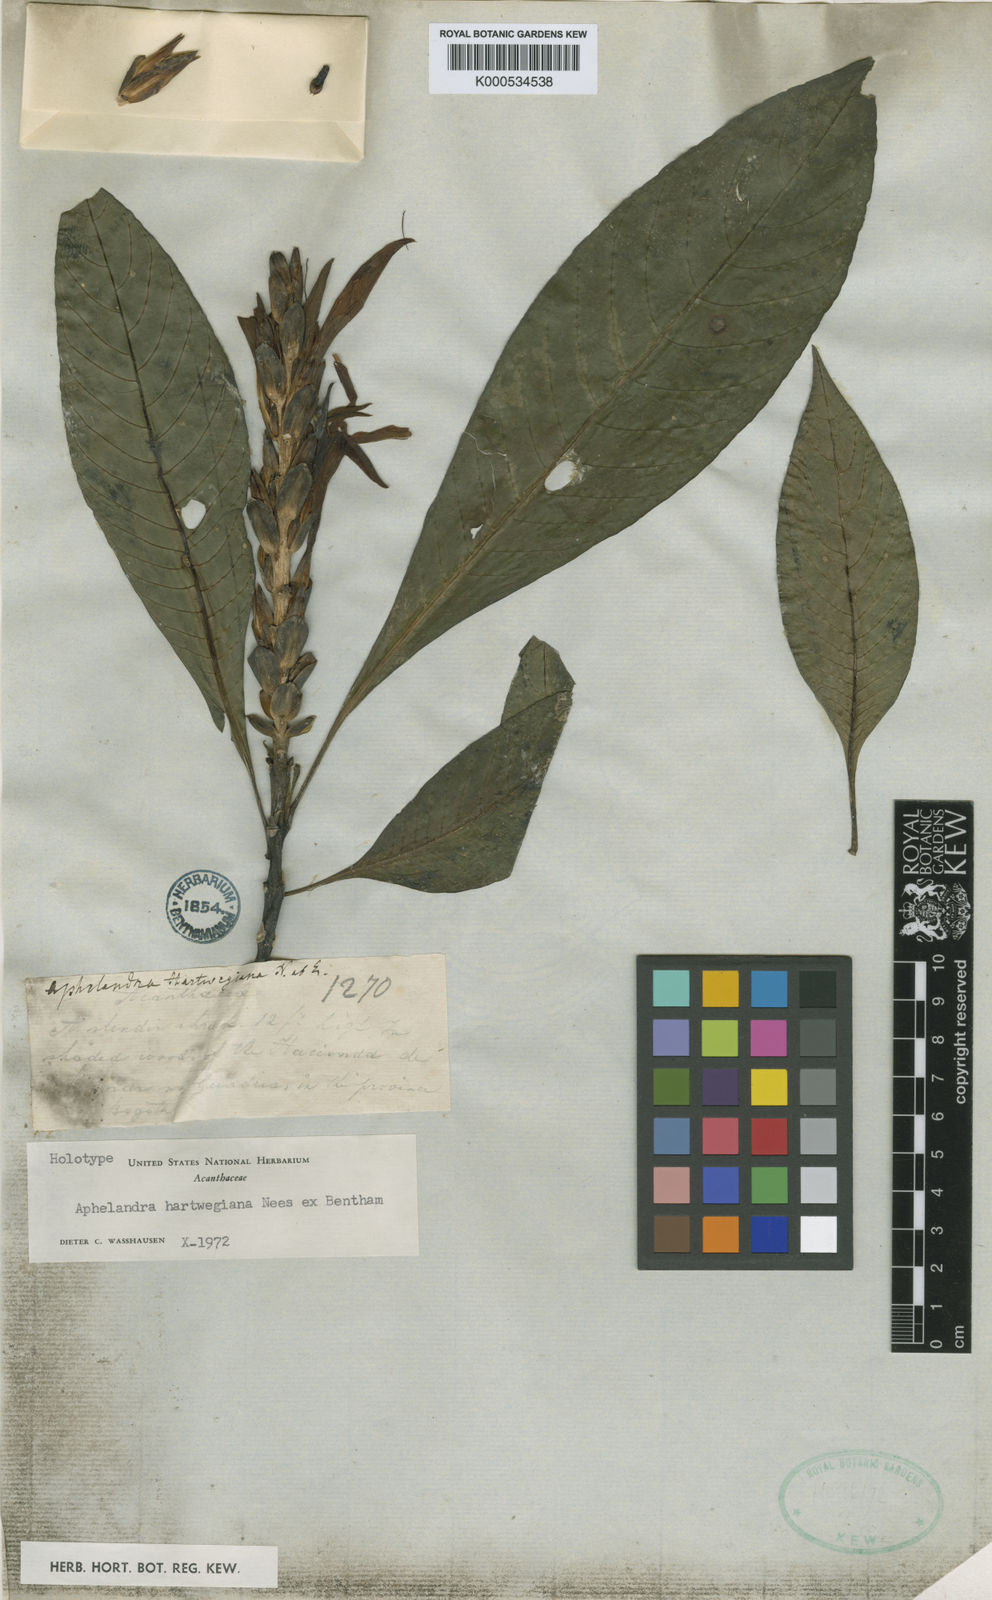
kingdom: Plantae
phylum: Tracheophyta
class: Magnoliopsida
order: Lamiales
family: Acanthaceae
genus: Aphelandra
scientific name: Aphelandra
